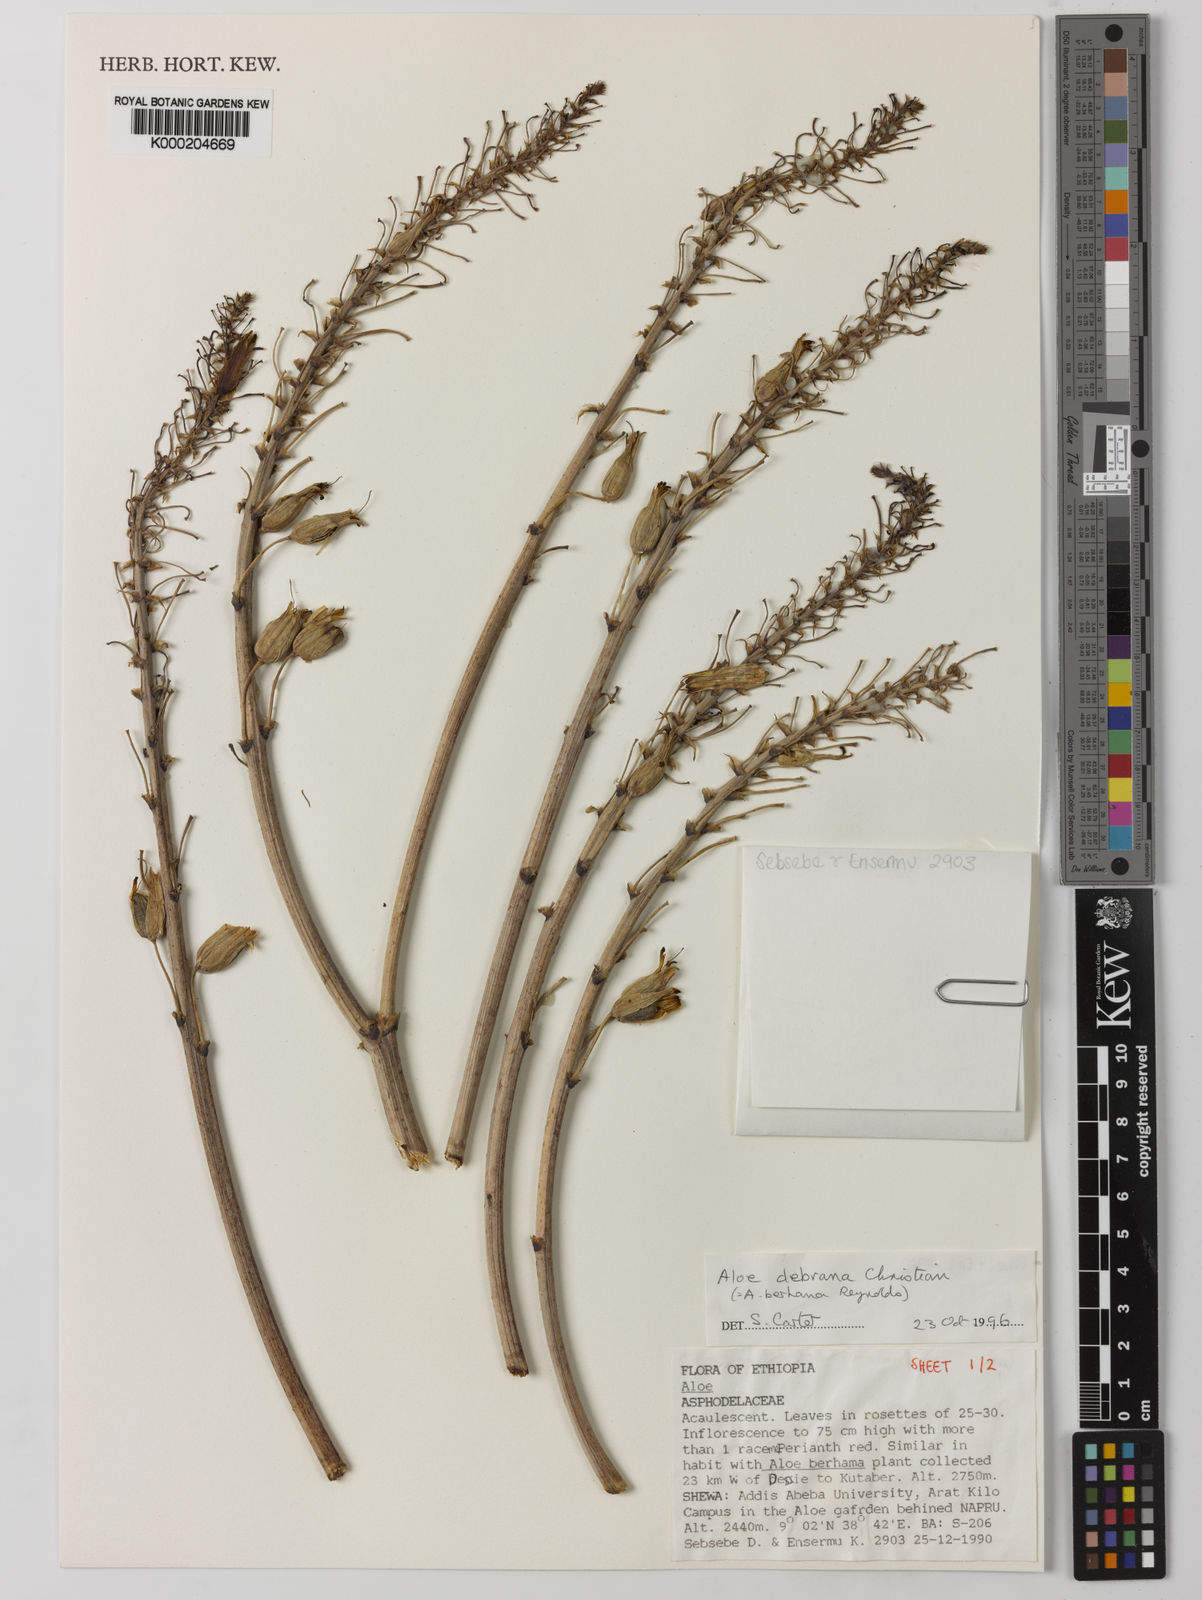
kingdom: Plantae
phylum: Tracheophyta
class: Liliopsida
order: Asparagales
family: Asphodelaceae
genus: Aloe
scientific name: Aloe debrana
